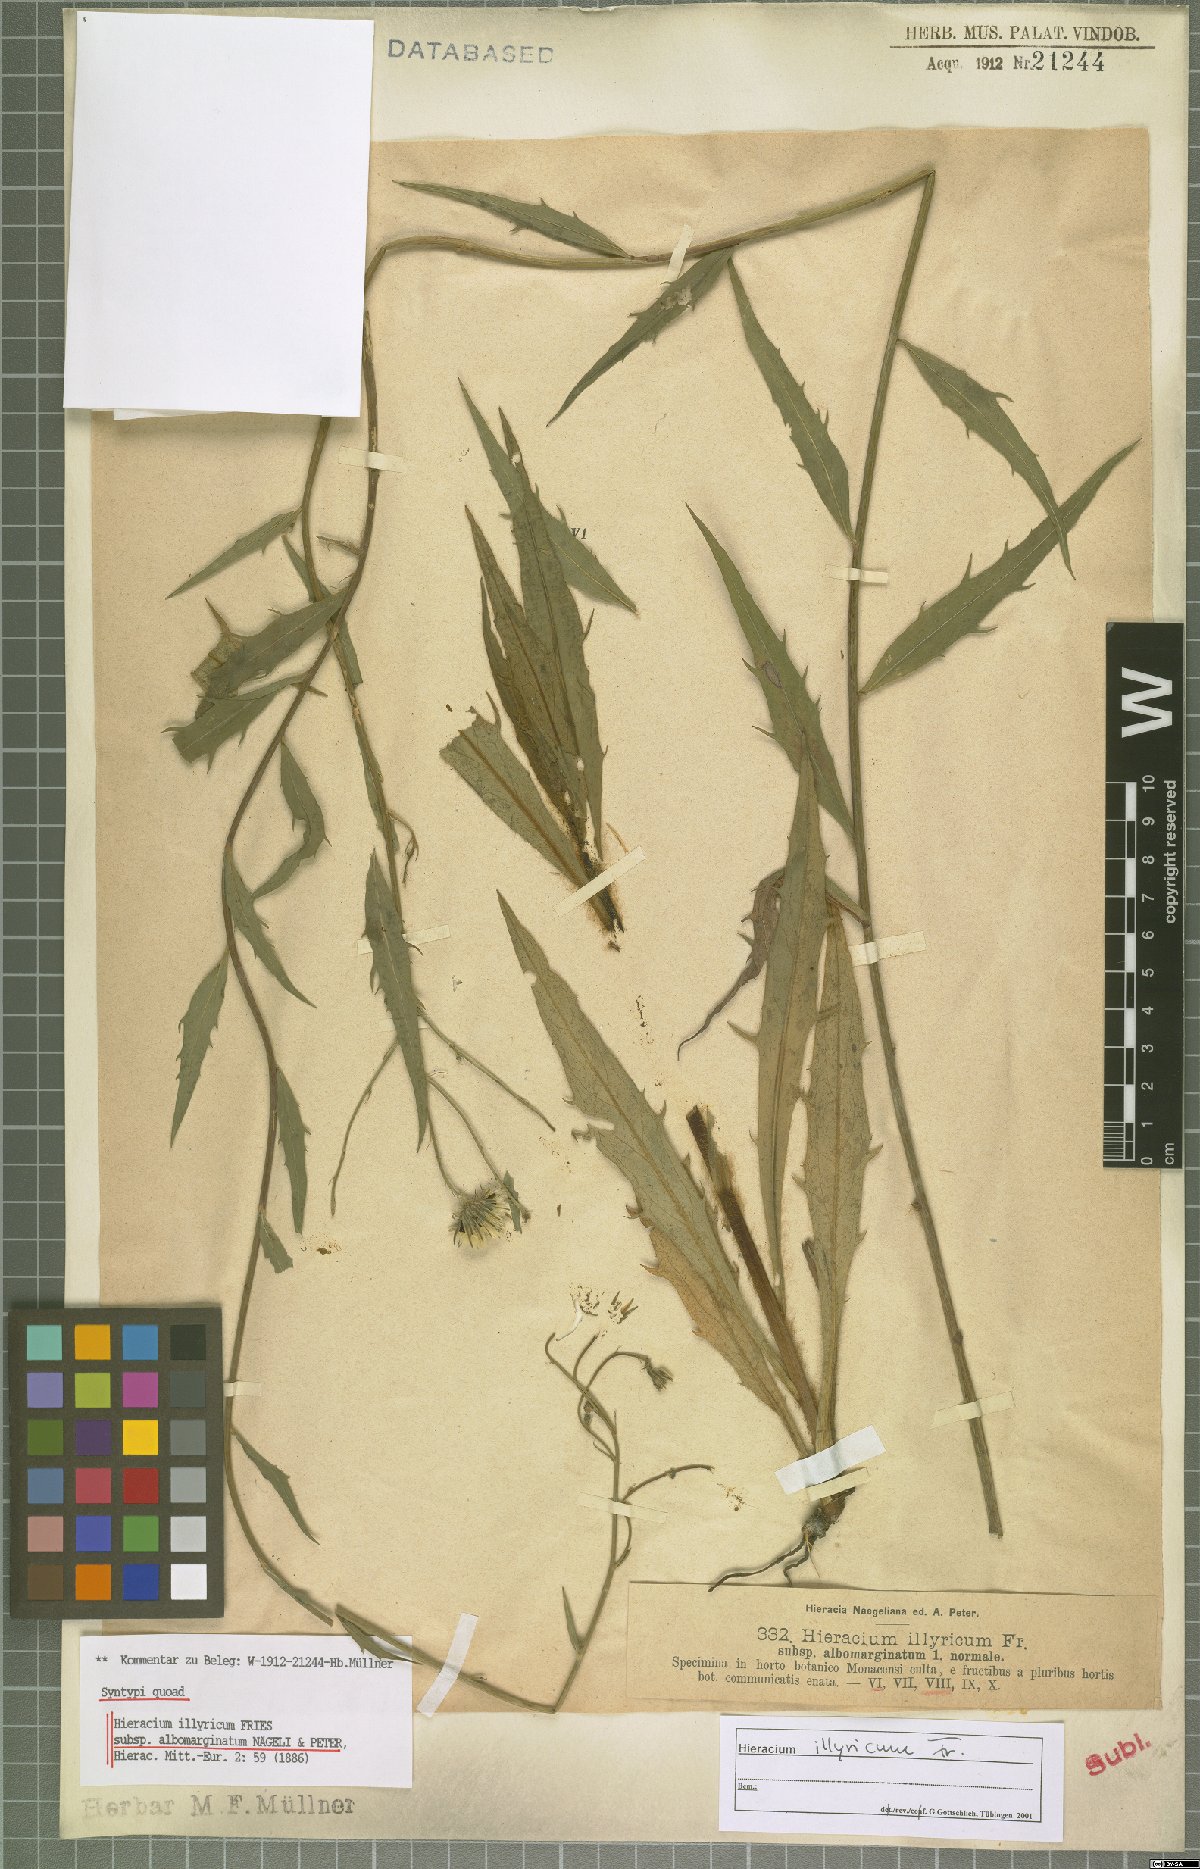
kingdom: Plantae
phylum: Tracheophyta
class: Magnoliopsida
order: Asterales
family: Asteraceae
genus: Hieracium
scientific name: Hieracium calcareum
